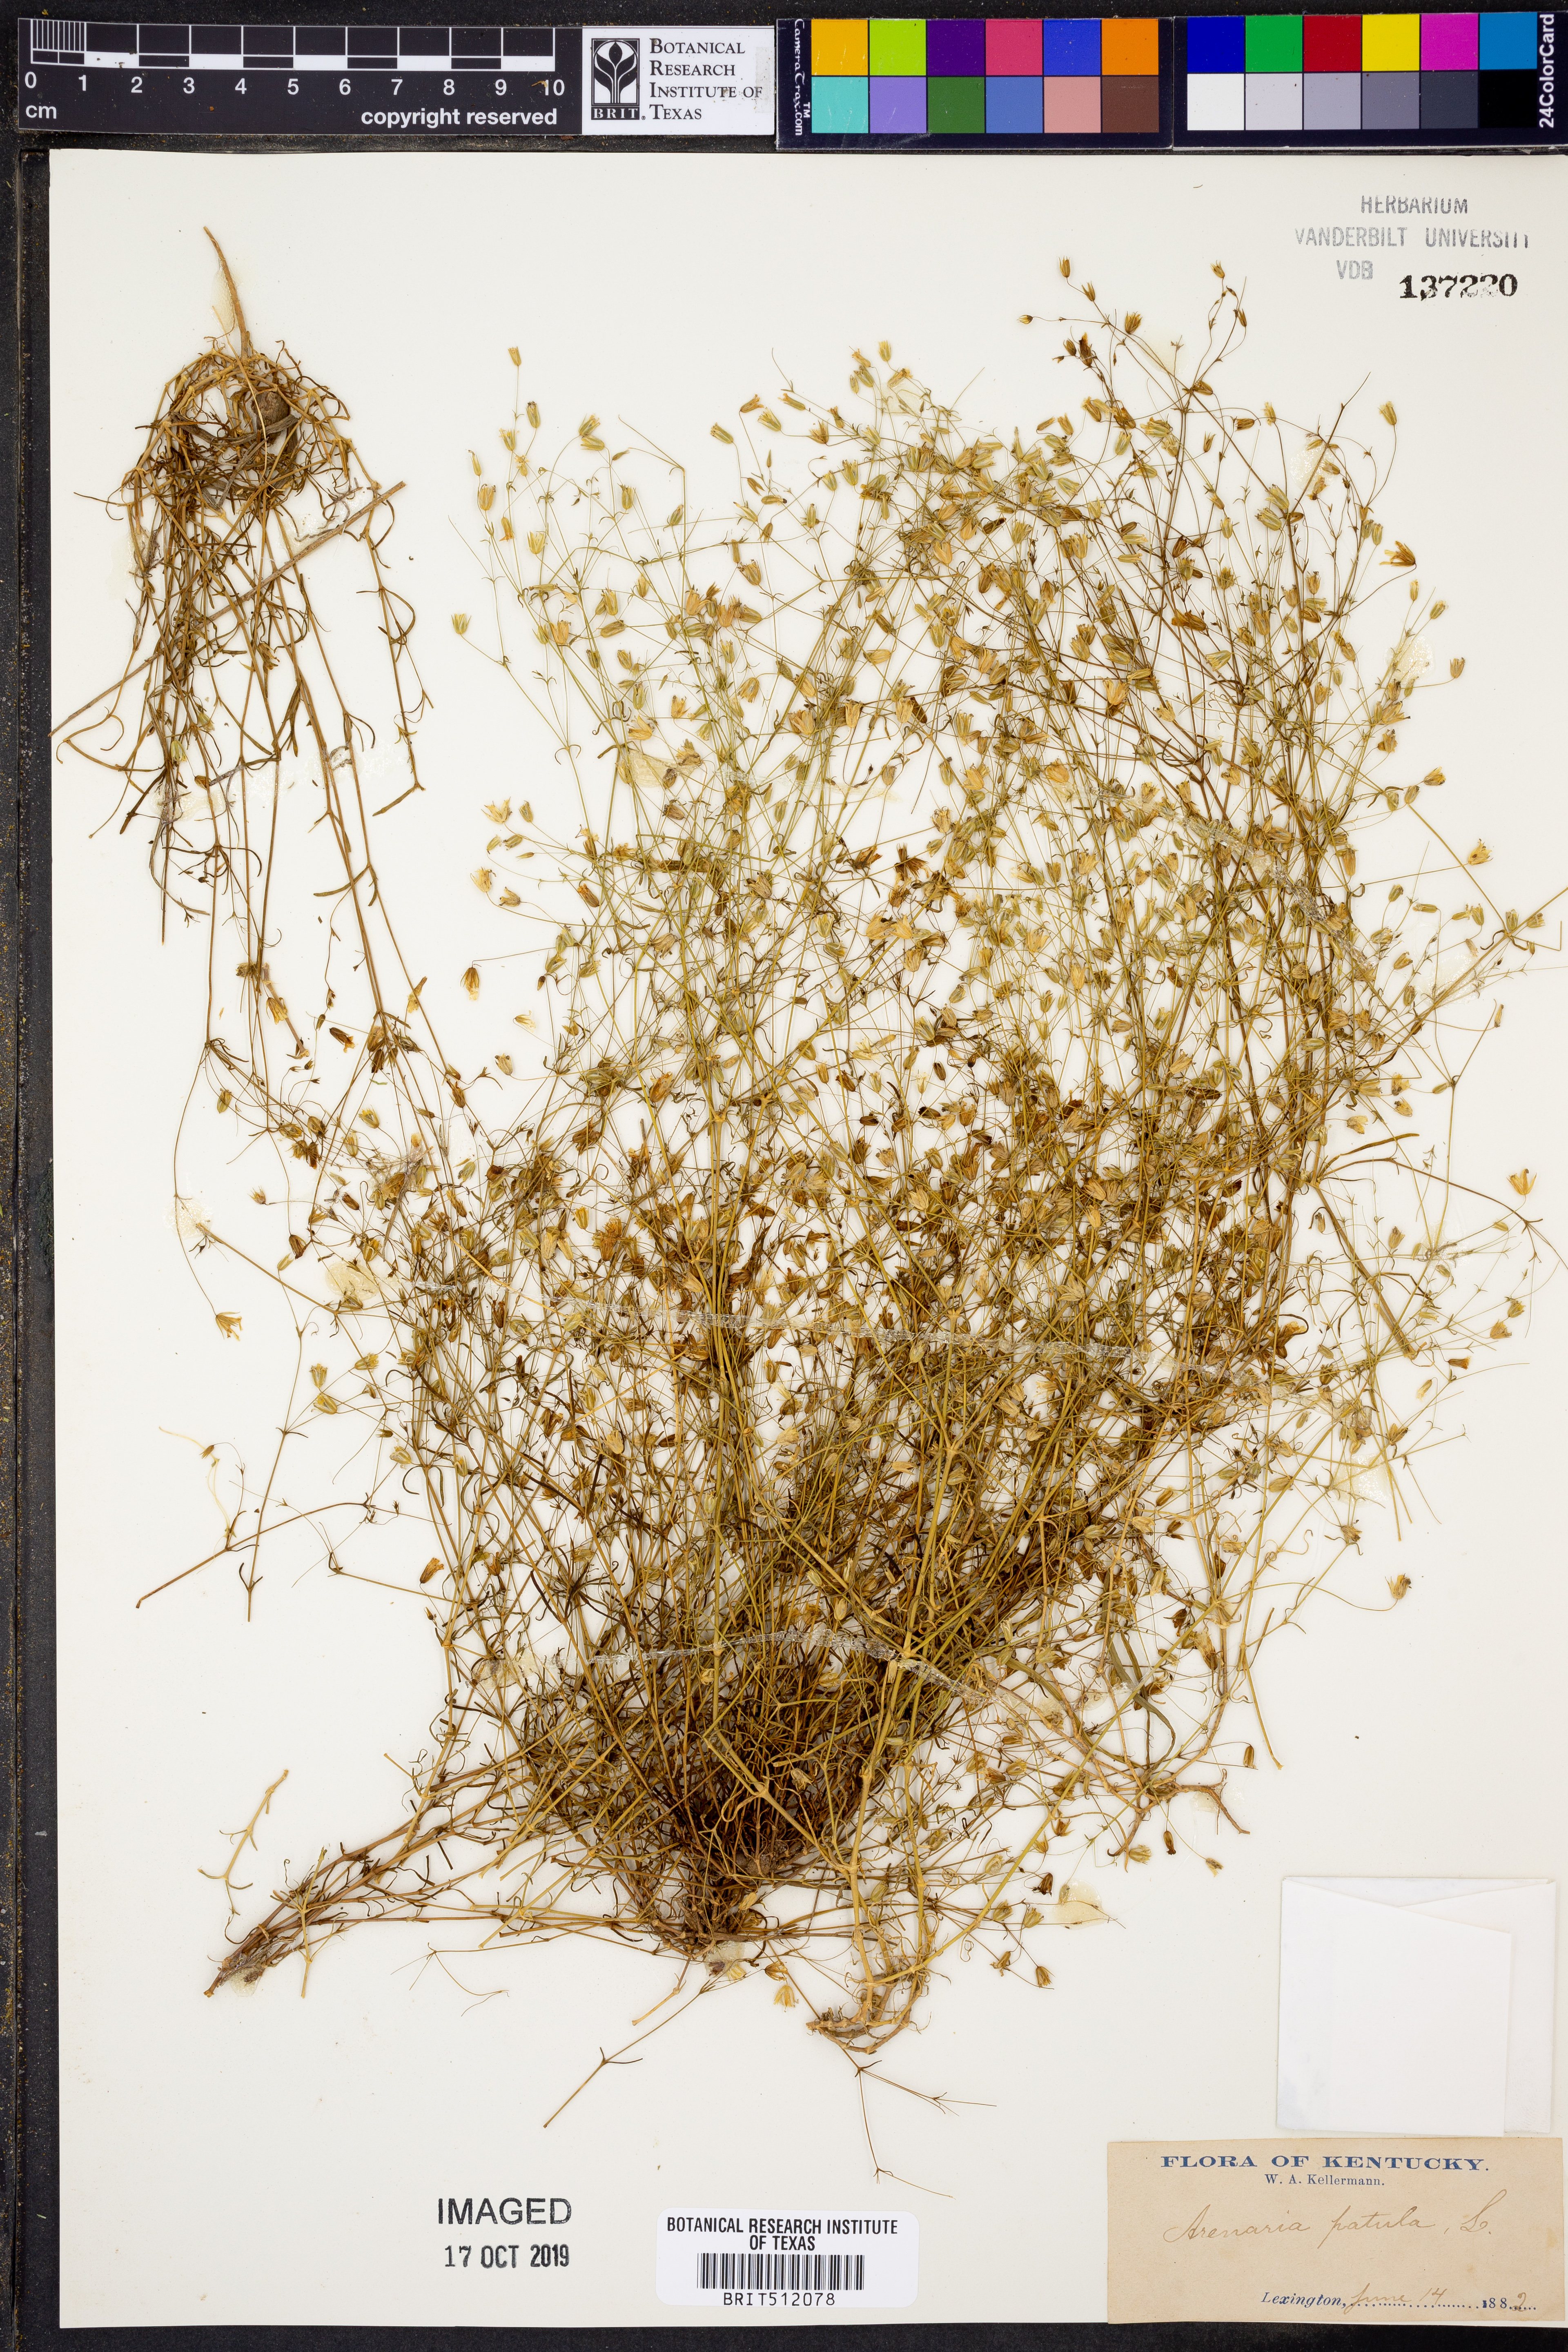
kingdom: Plantae
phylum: Tracheophyta
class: Magnoliopsida
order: Caryophyllales
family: Caryophyllaceae
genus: Mononeuria
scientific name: Mononeuria patula
